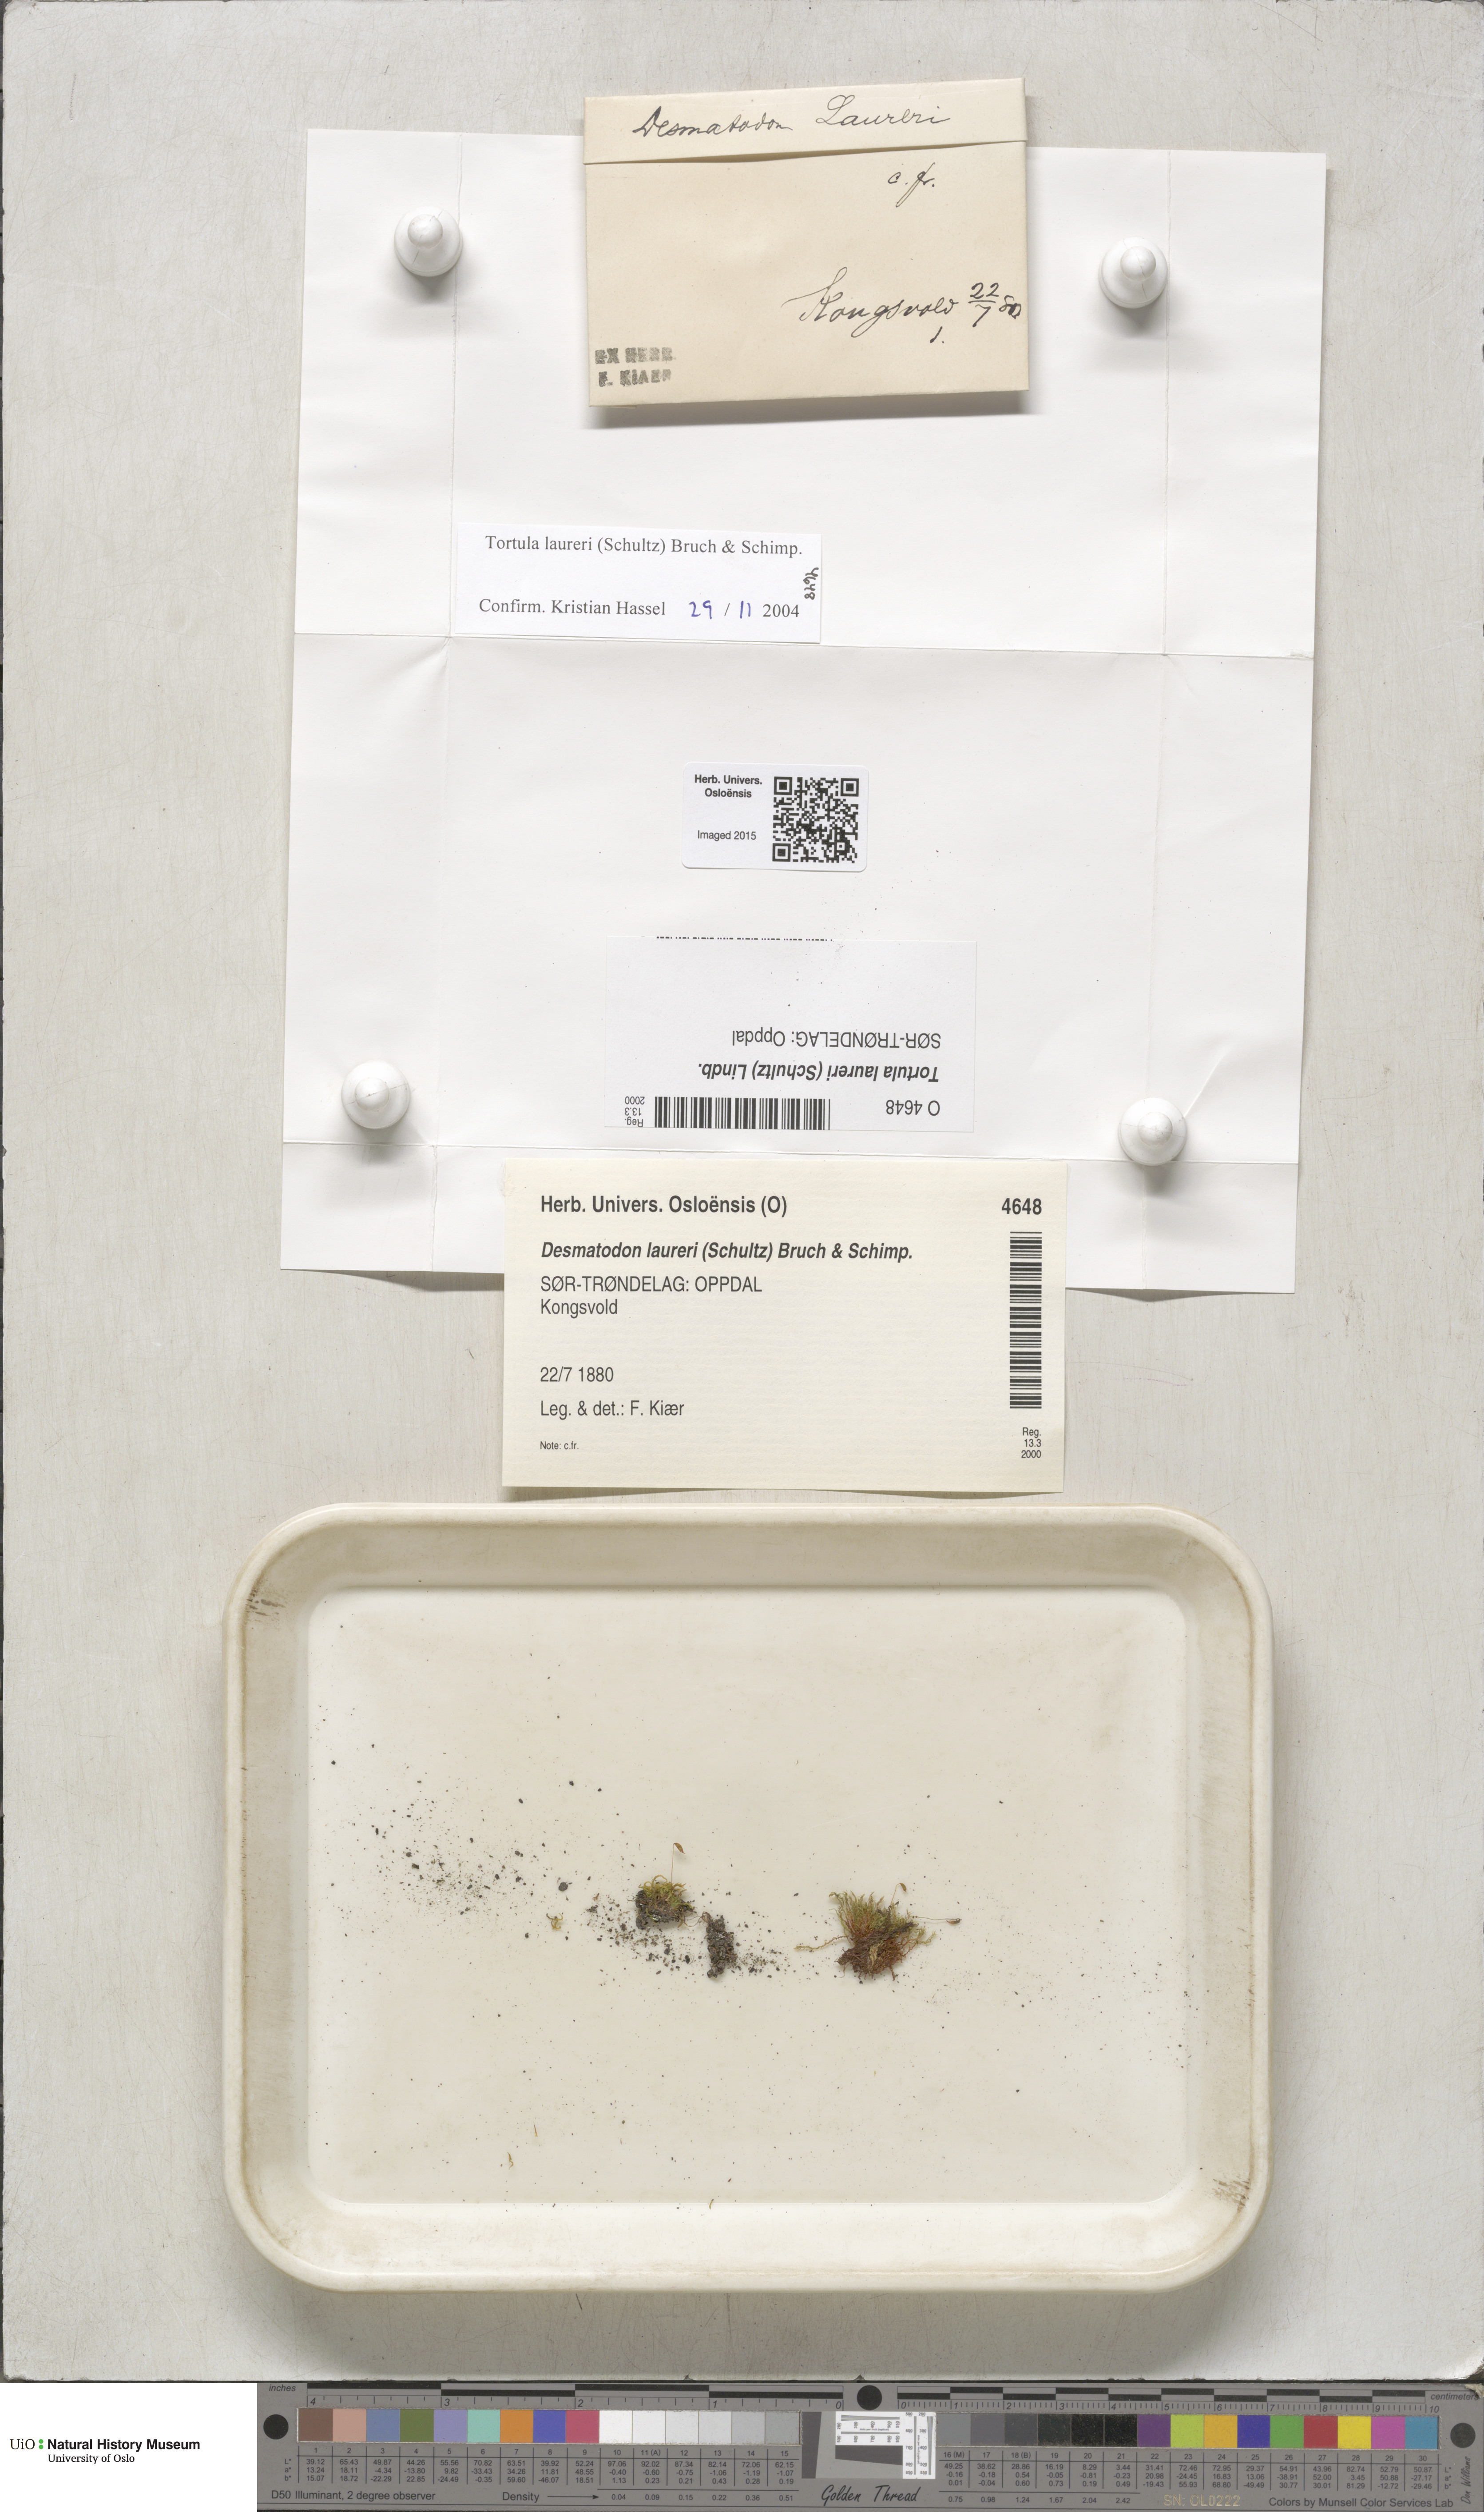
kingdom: Plantae
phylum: Bryophyta
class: Bryopsida
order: Pottiales
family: Pottiaceae
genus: Tortula
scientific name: Tortula laureri
